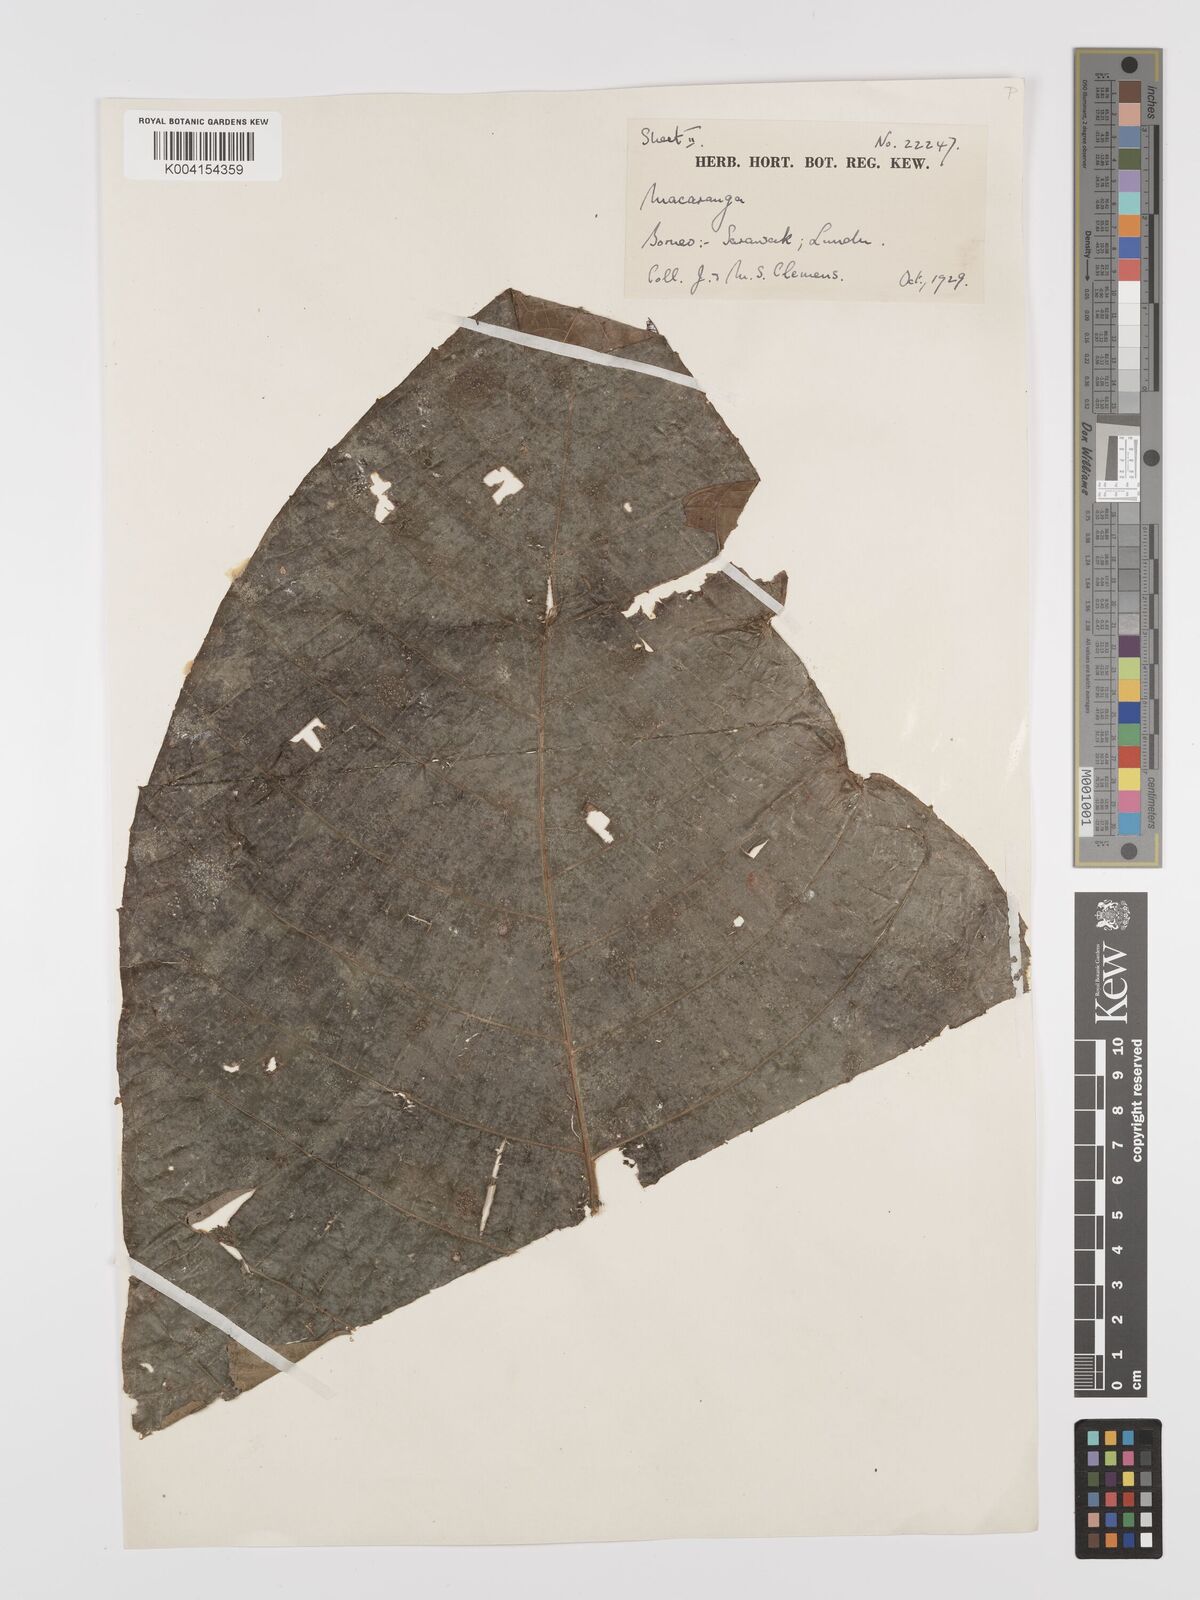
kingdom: Plantae
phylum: Tracheophyta
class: Magnoliopsida
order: Malpighiales
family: Euphorbiaceae
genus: Macaranga
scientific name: Macaranga umbrosa
